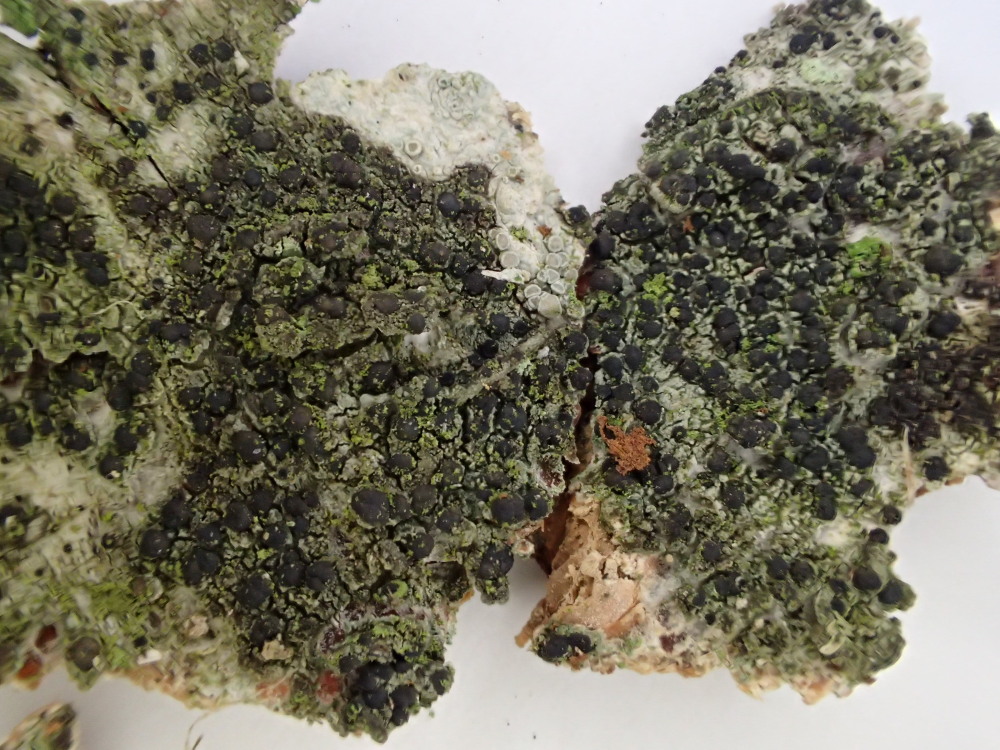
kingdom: Fungi
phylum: Ascomycota
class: Lecanoromycetes
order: Lecanorales
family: Lecanoraceae
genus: Lecidella
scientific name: Lecidella euphorea
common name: vortet skivelav
